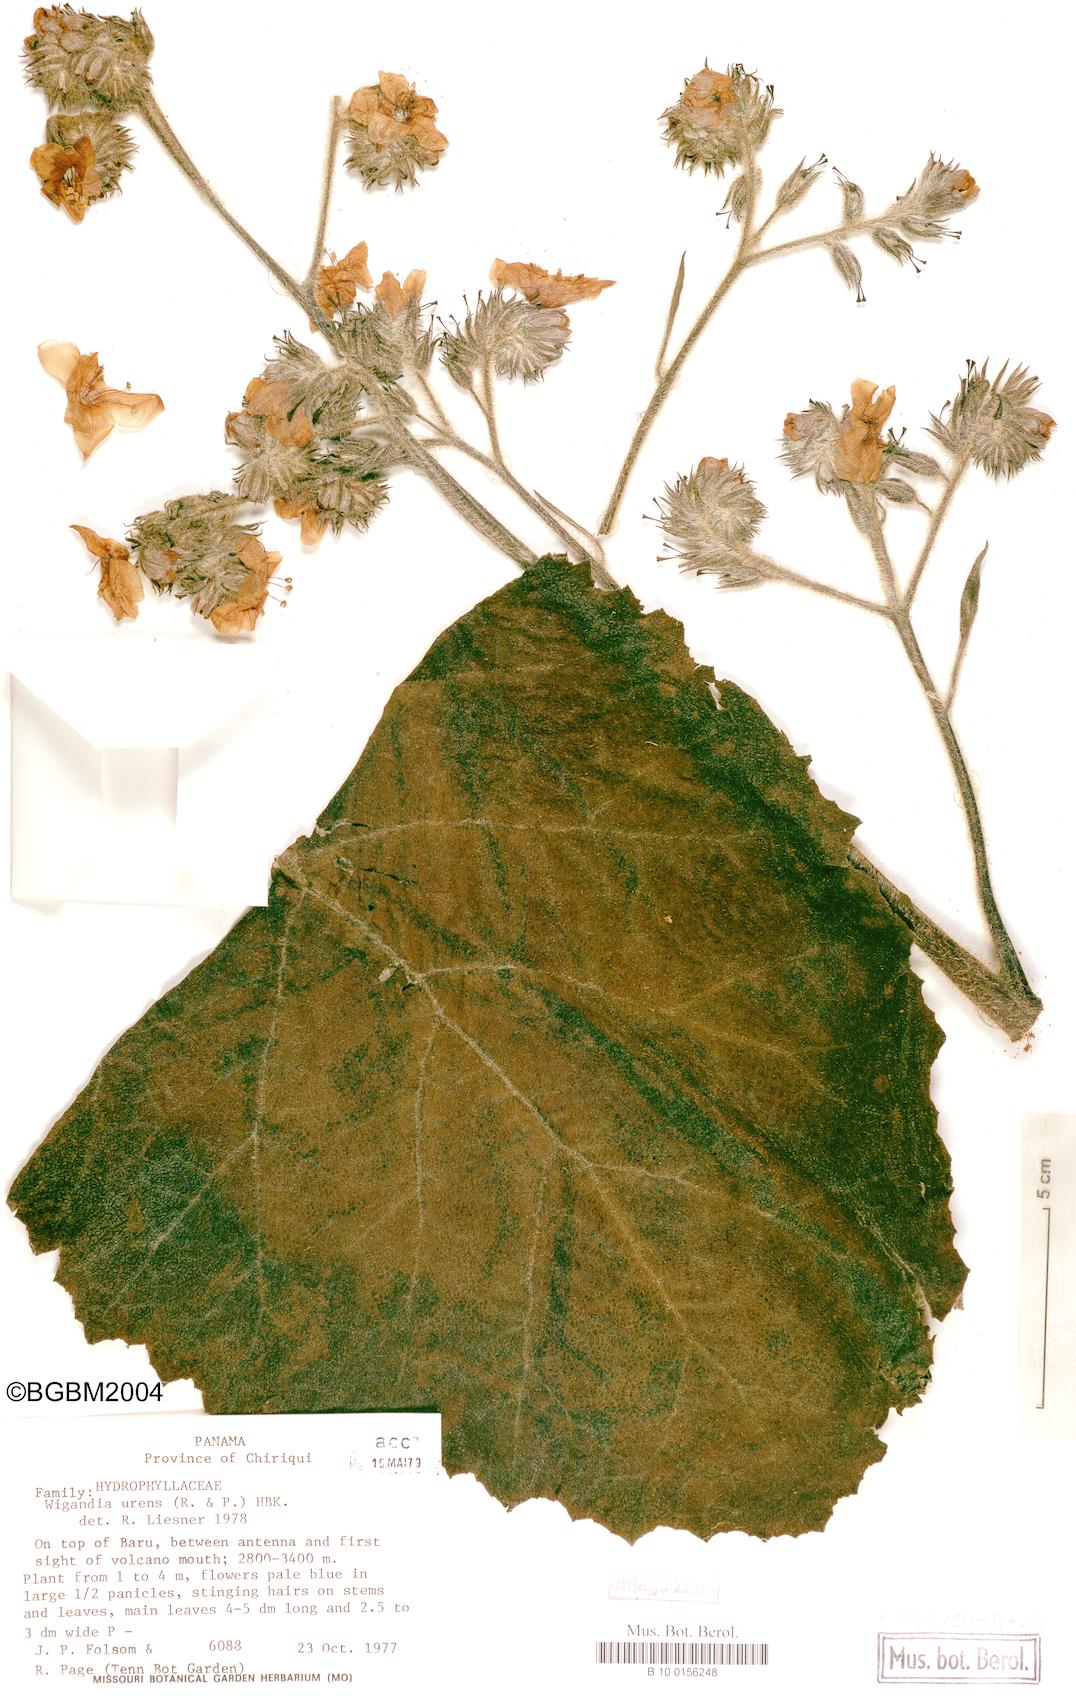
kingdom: Plantae
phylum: Tracheophyta
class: Magnoliopsida
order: Boraginales
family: Namaceae
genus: Wigandia
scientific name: Wigandia urens
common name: Caracus wigandia
